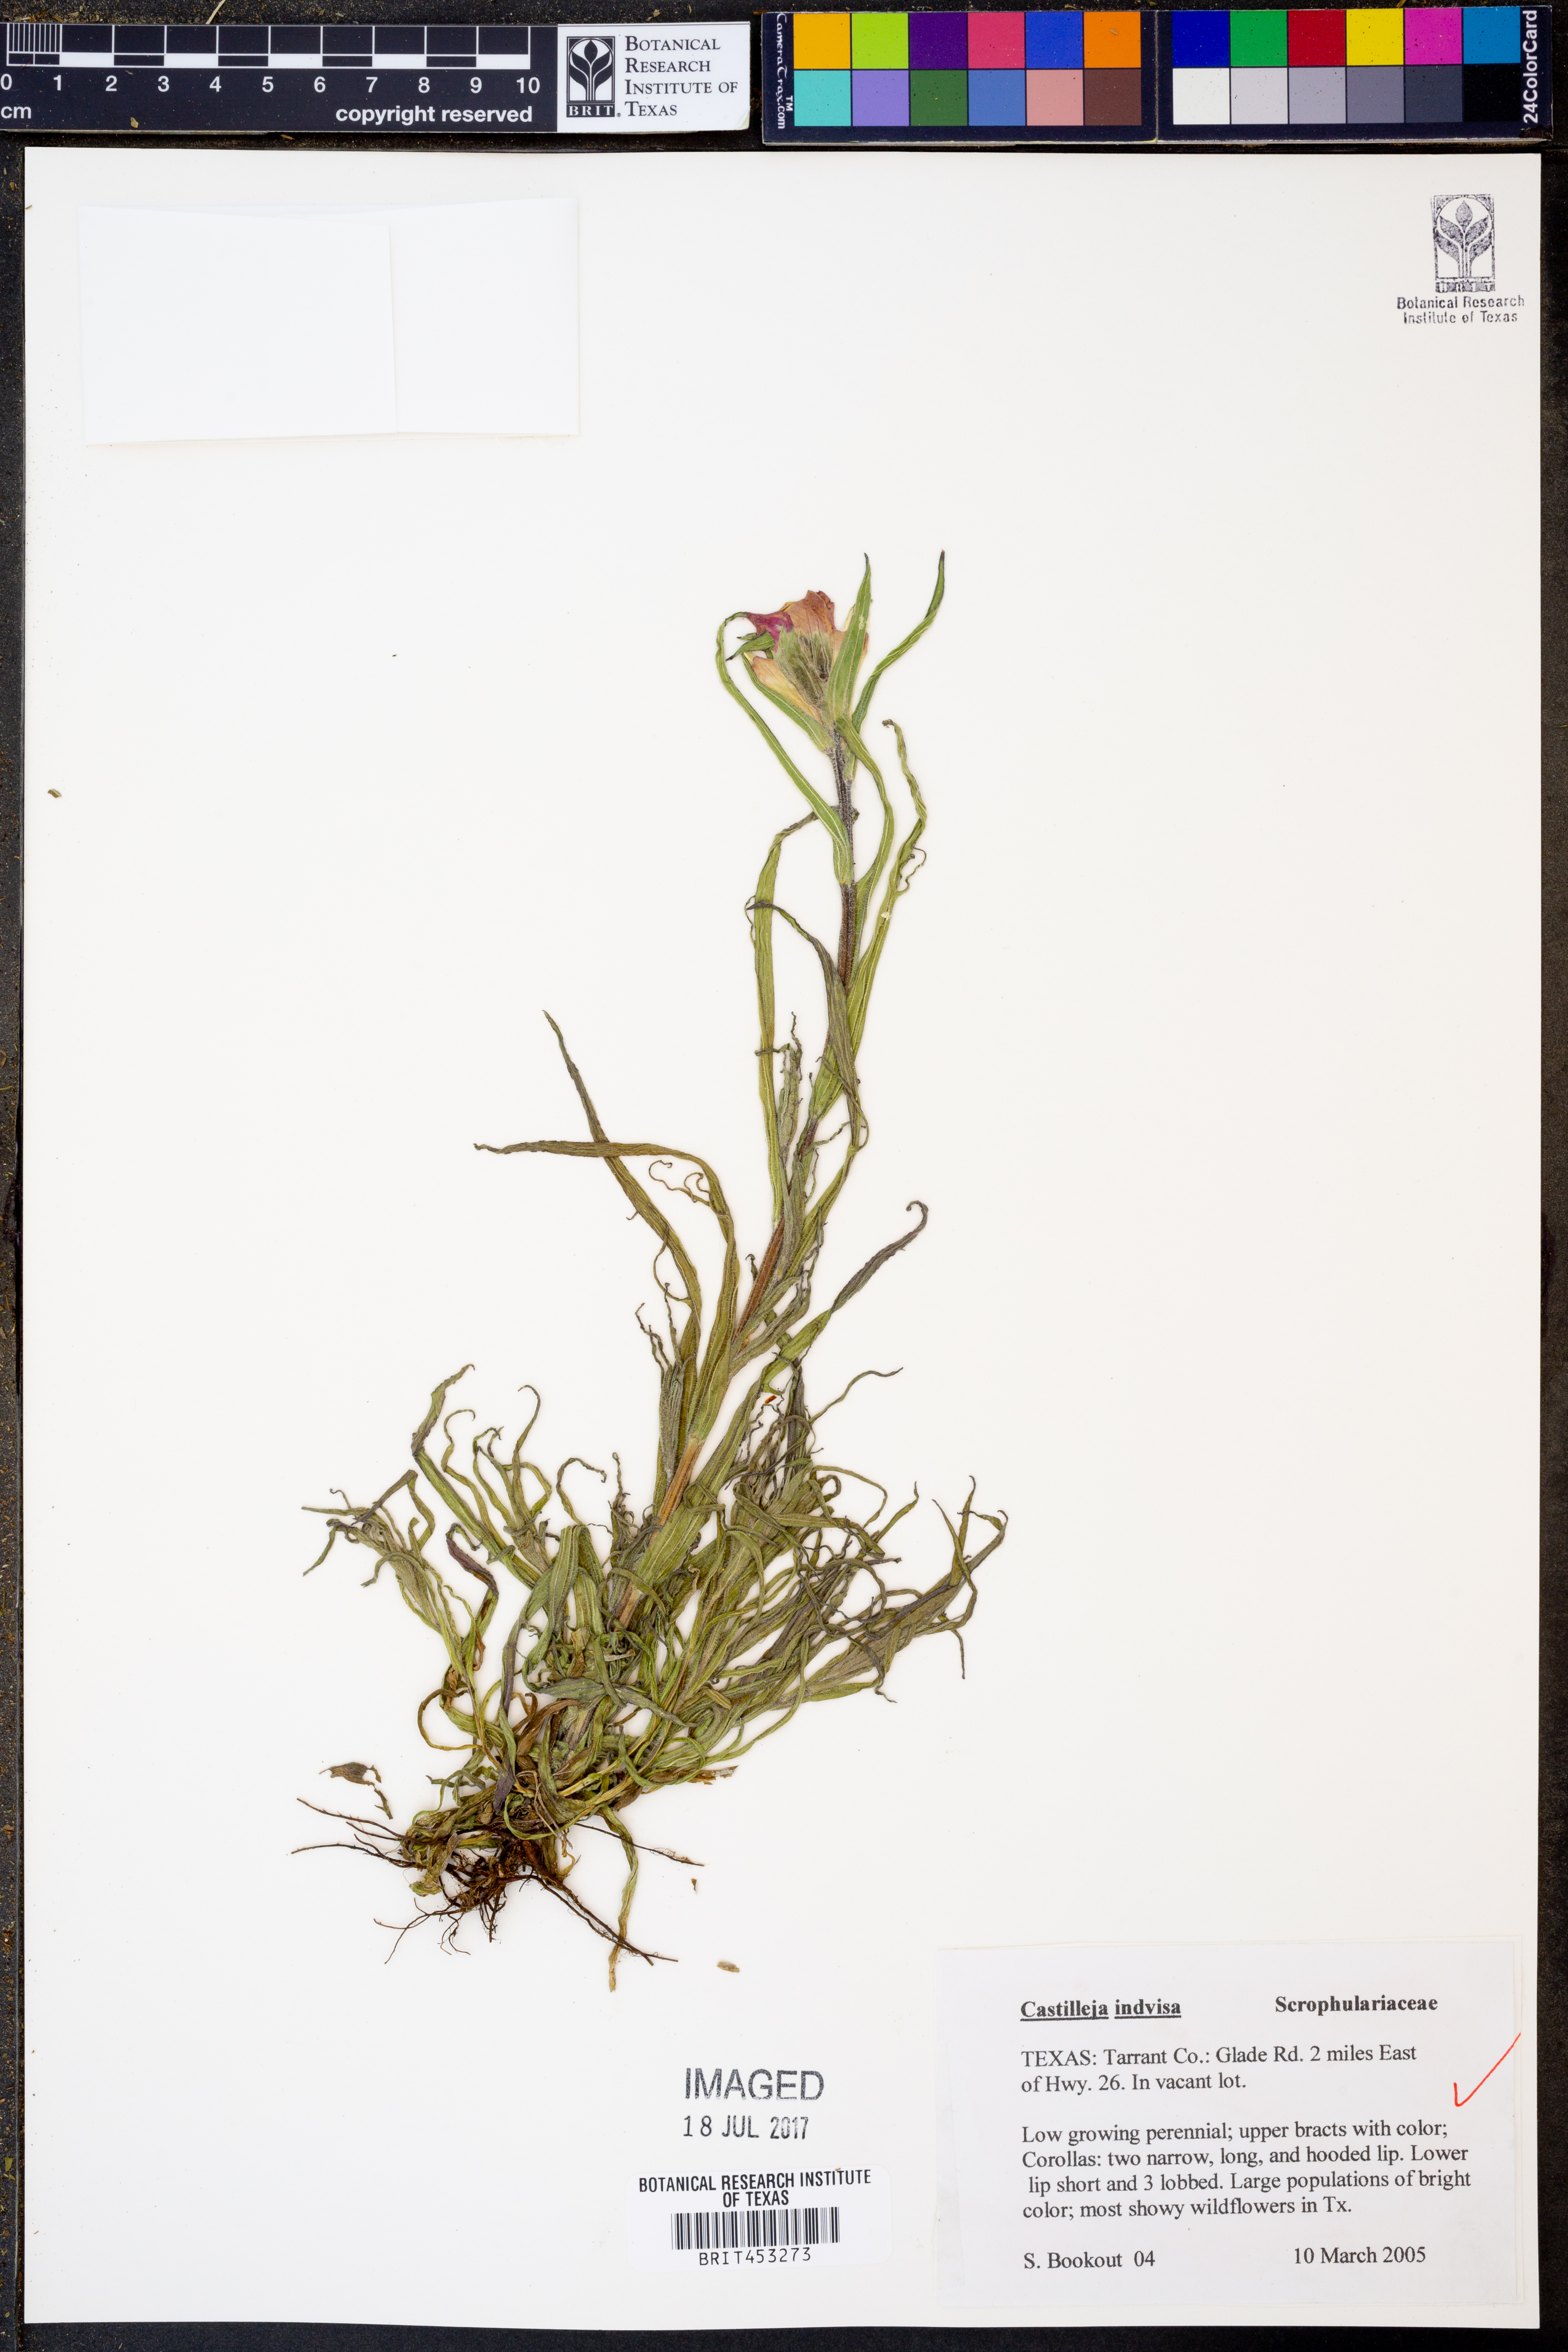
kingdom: Plantae
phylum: Tracheophyta
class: Magnoliopsida
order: Lamiales
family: Orobanchaceae
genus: Castilleja
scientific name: Castilleja indivisa
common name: Texas paintbrush
